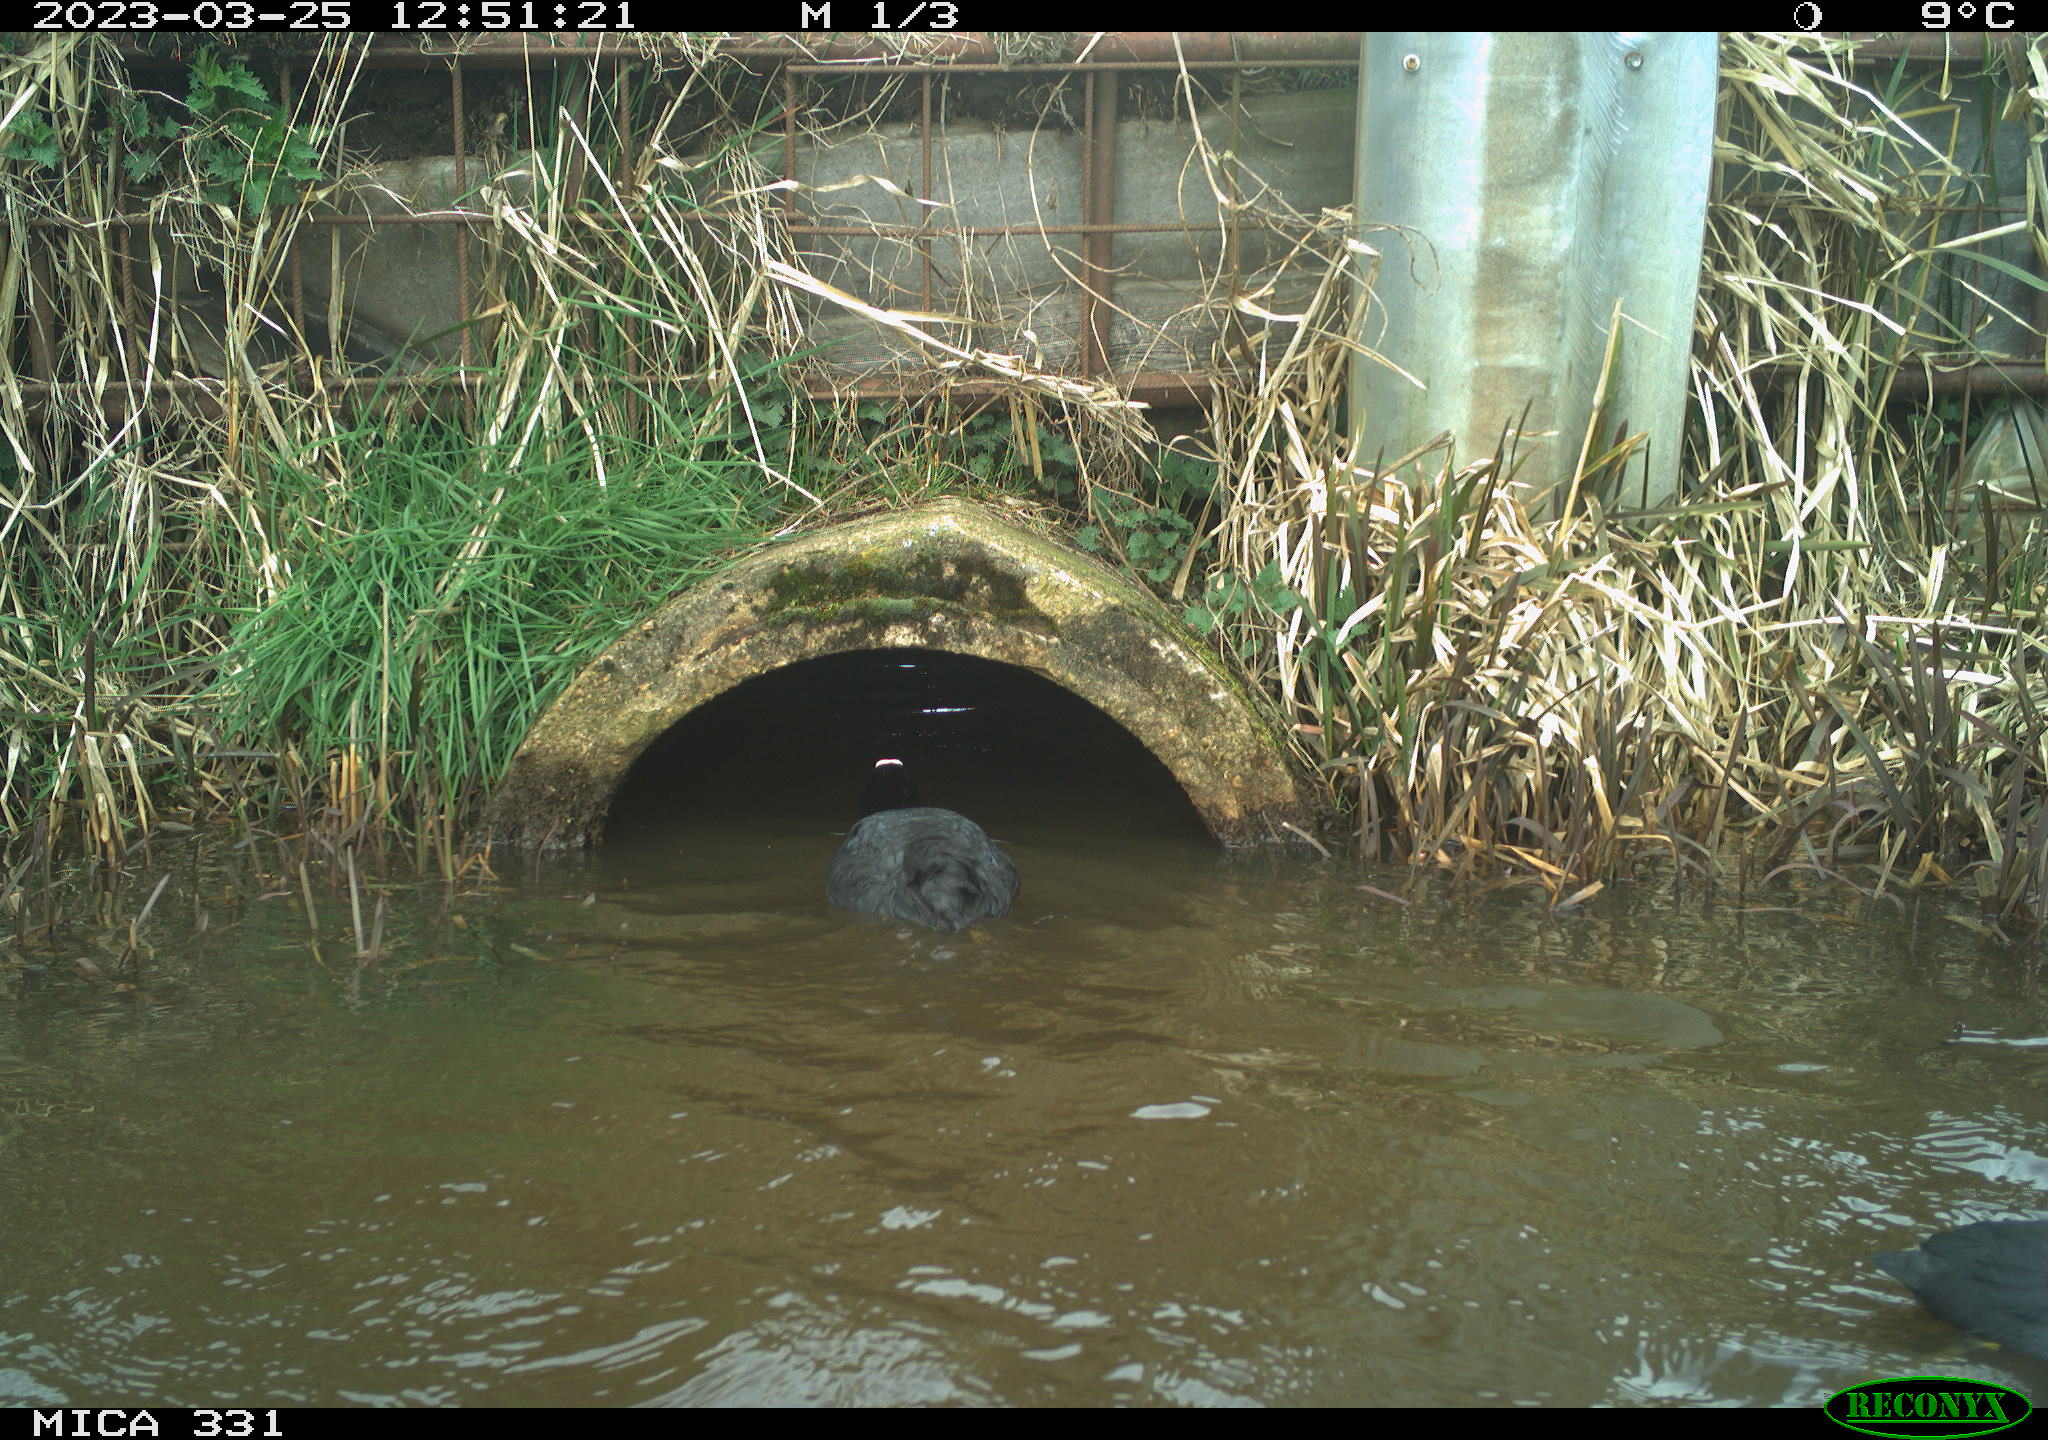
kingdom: Animalia
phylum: Chordata
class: Aves
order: Gruiformes
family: Rallidae
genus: Fulica
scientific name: Fulica atra
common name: Eurasian coot
